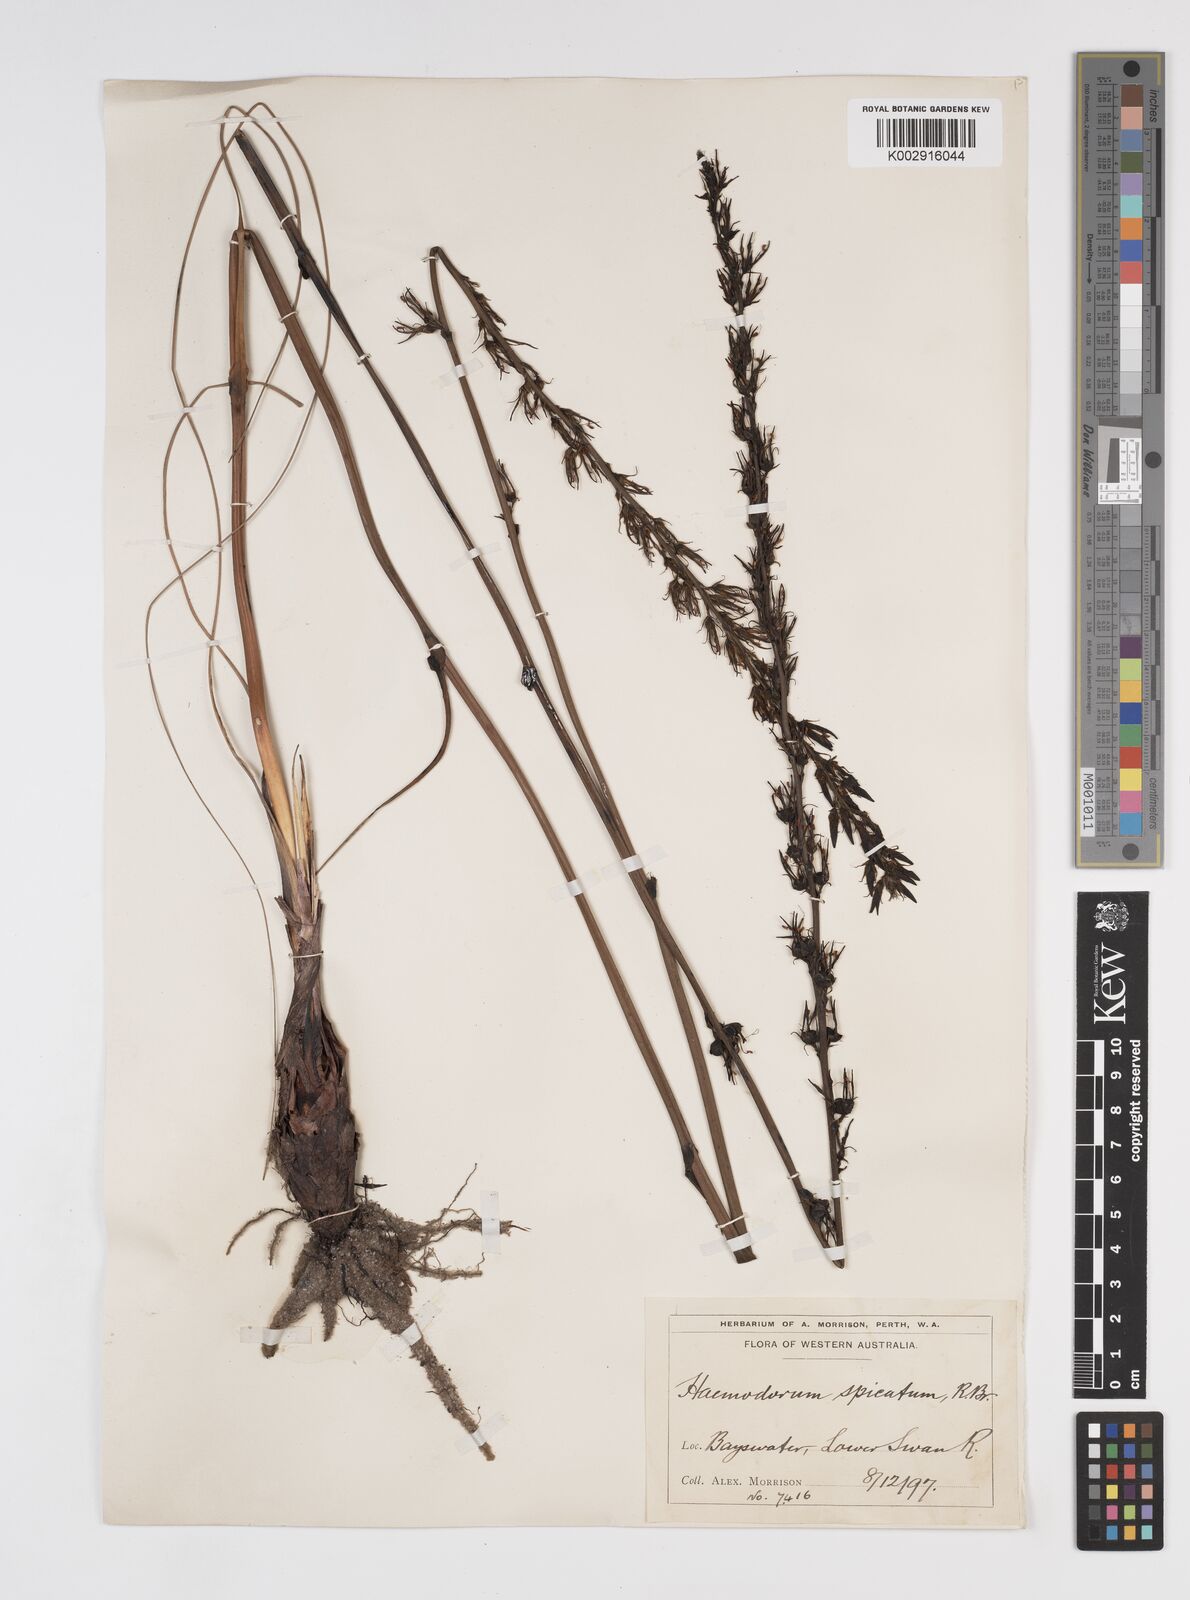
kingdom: Plantae
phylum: Tracheophyta
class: Liliopsida
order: Commelinales
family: Haemodoraceae
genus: Haemodorum
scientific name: Haemodorum spicatum
